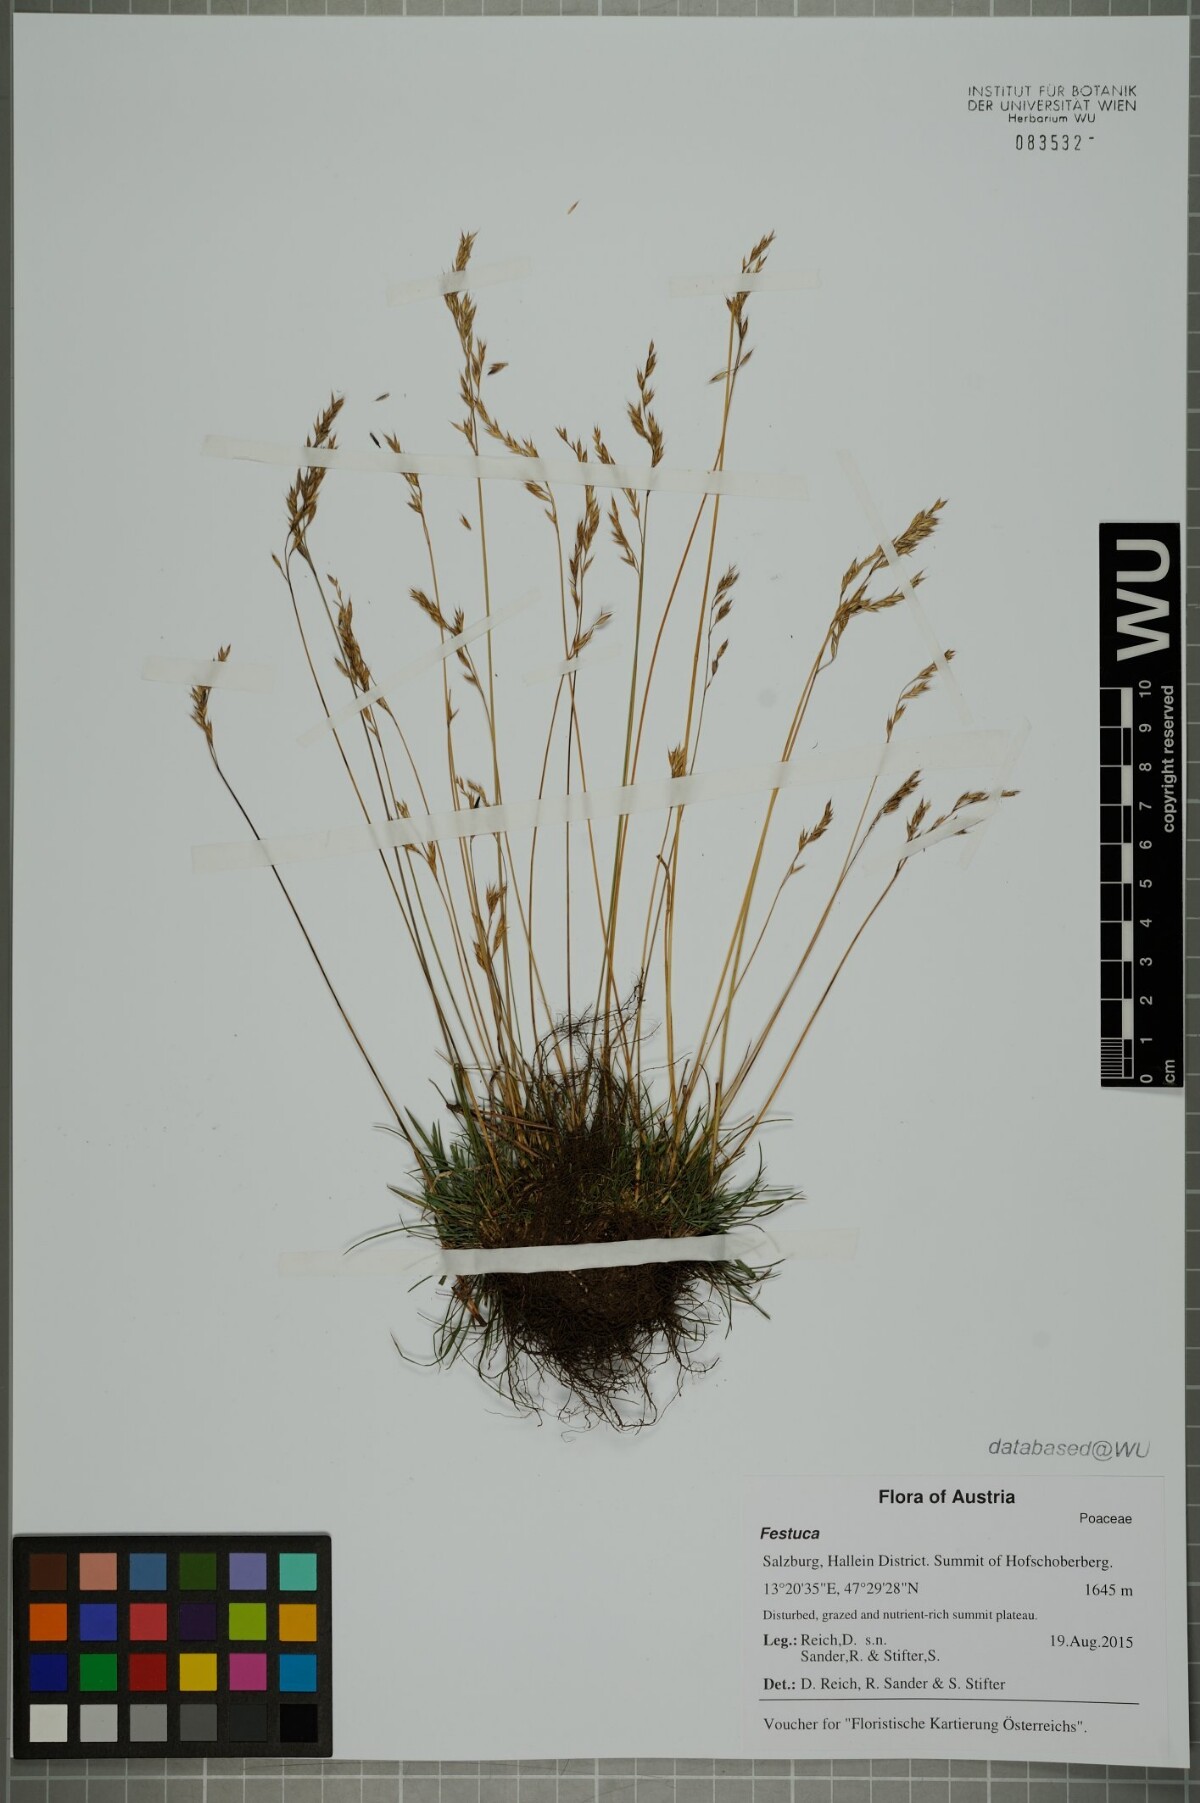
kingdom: Plantae
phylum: Tracheophyta
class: Liliopsida
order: Poales
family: Poaceae
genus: Festuca
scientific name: Festuca
